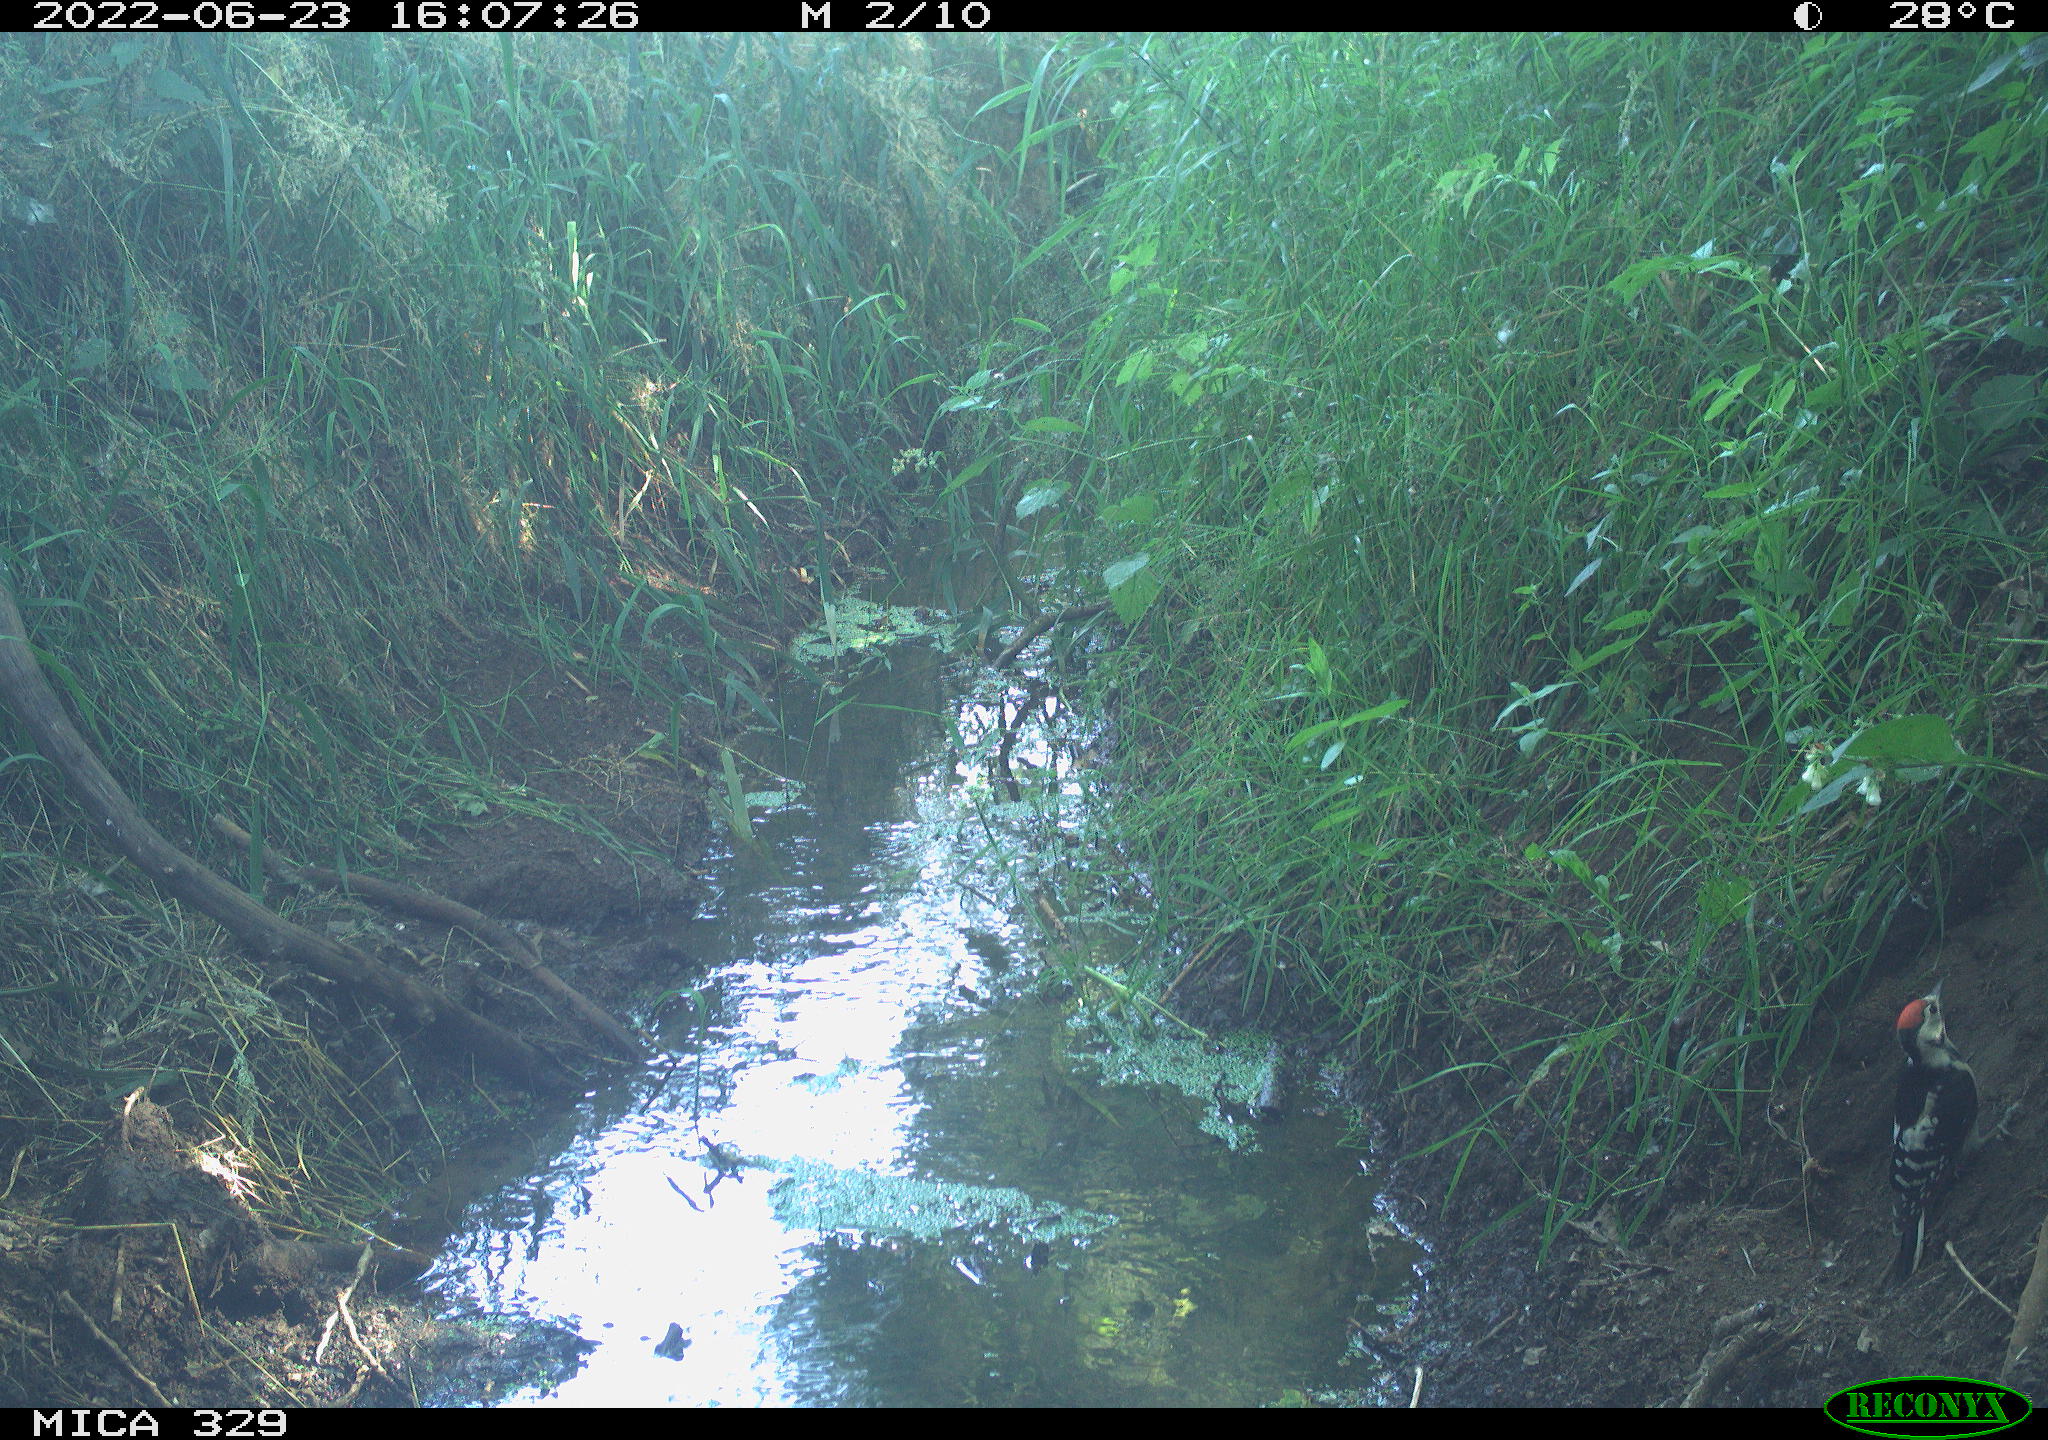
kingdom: Animalia
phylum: Chordata
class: Aves
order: Piciformes
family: Picidae
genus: Dendrocopos
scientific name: Dendrocopos major
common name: Great spotted woodpecker
